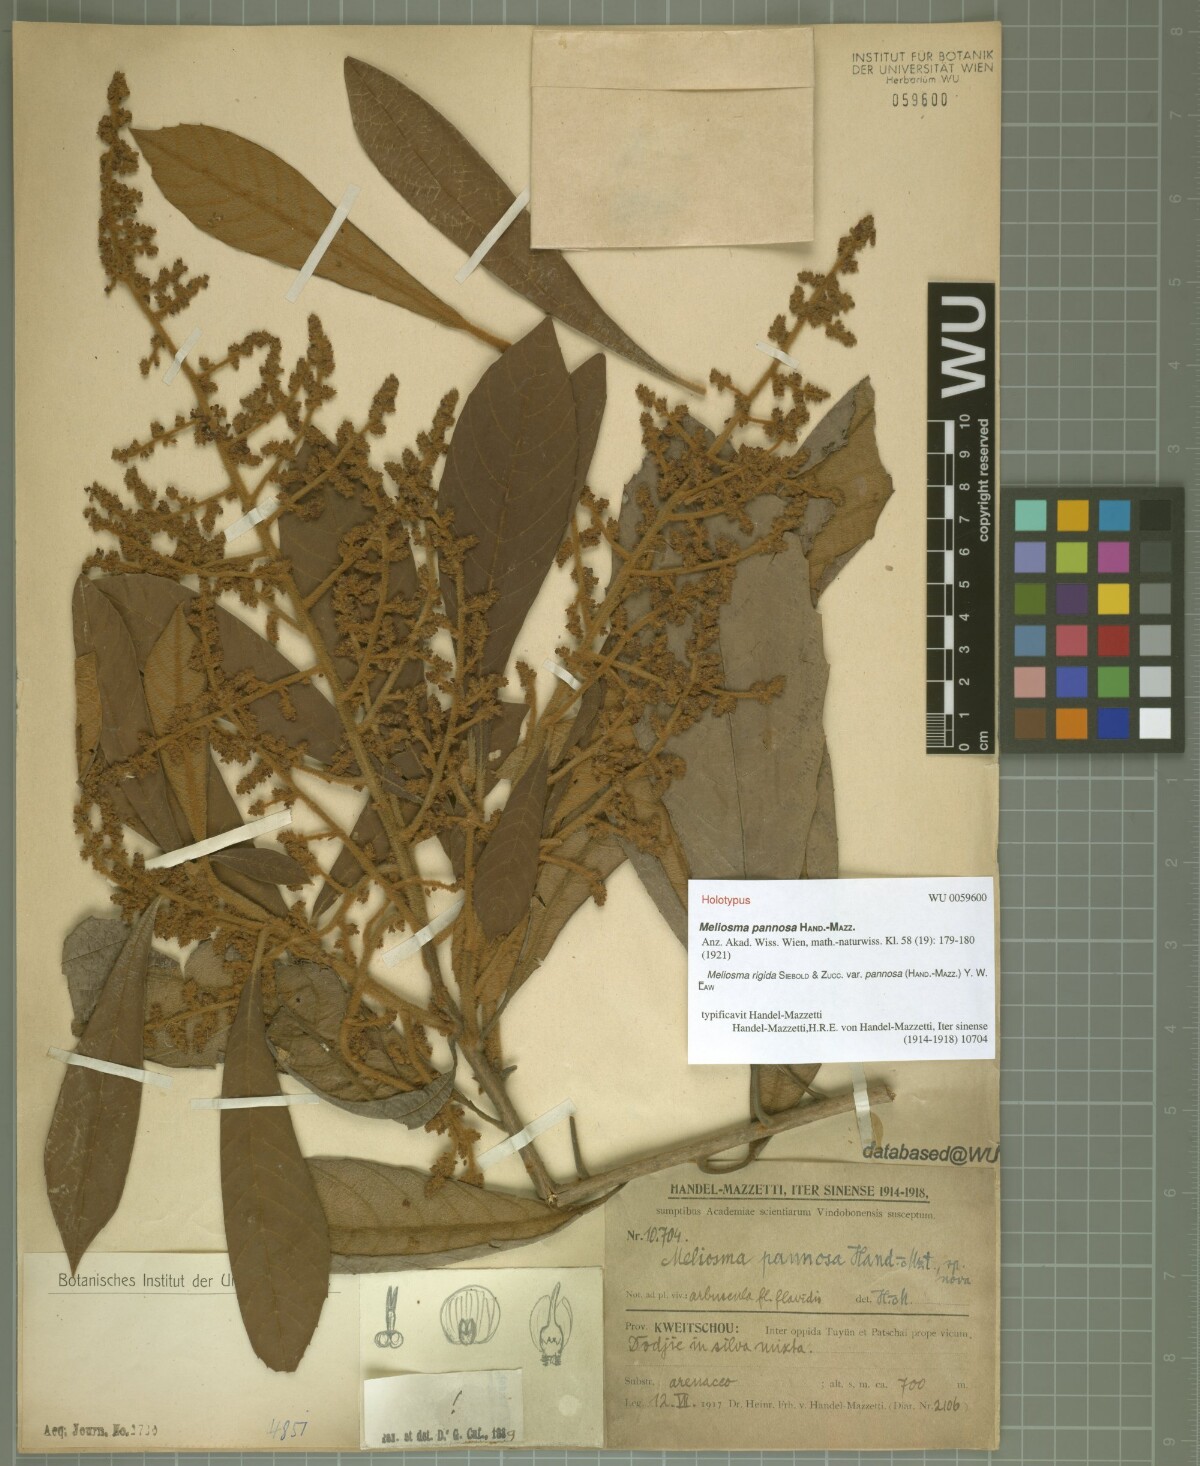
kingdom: Plantae
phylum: Tracheophyta
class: Magnoliopsida
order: Proteales
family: Sabiaceae
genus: Meliosma
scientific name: Meliosma rigida
